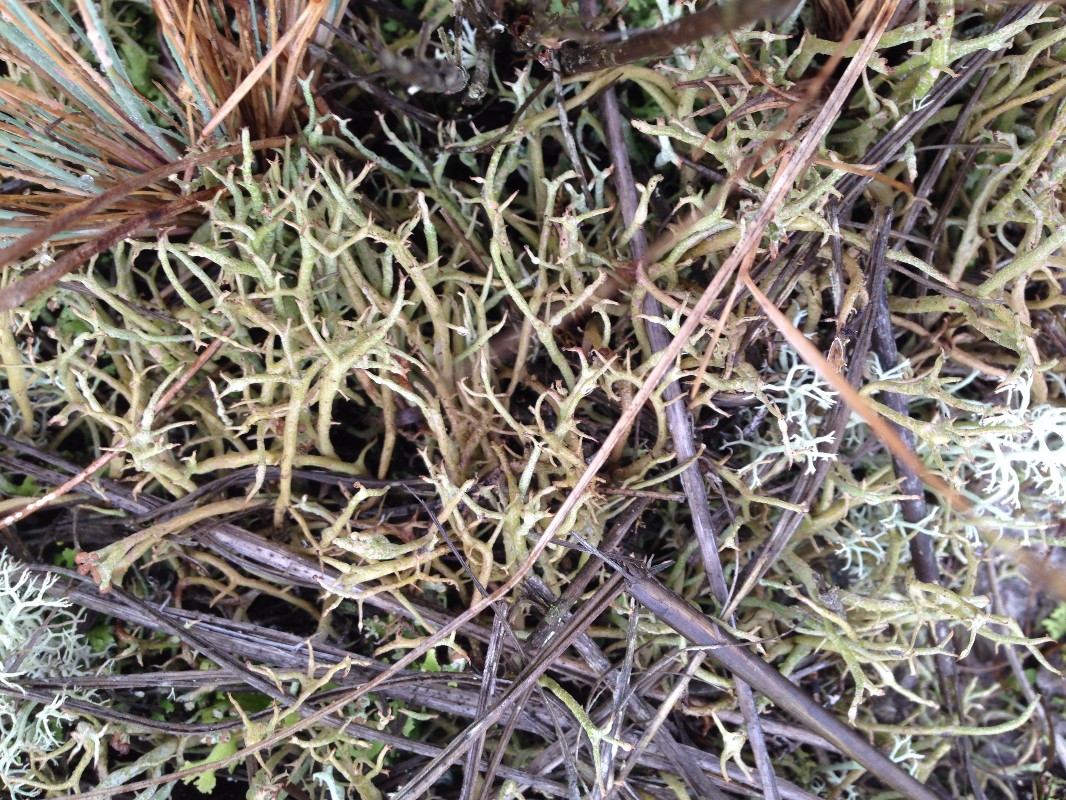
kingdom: Fungi
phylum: Ascomycota
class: Lecanoromycetes
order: Lecanorales
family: Cladoniaceae
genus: Cladonia
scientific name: Cladonia furcata
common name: kløftet bægerlav
